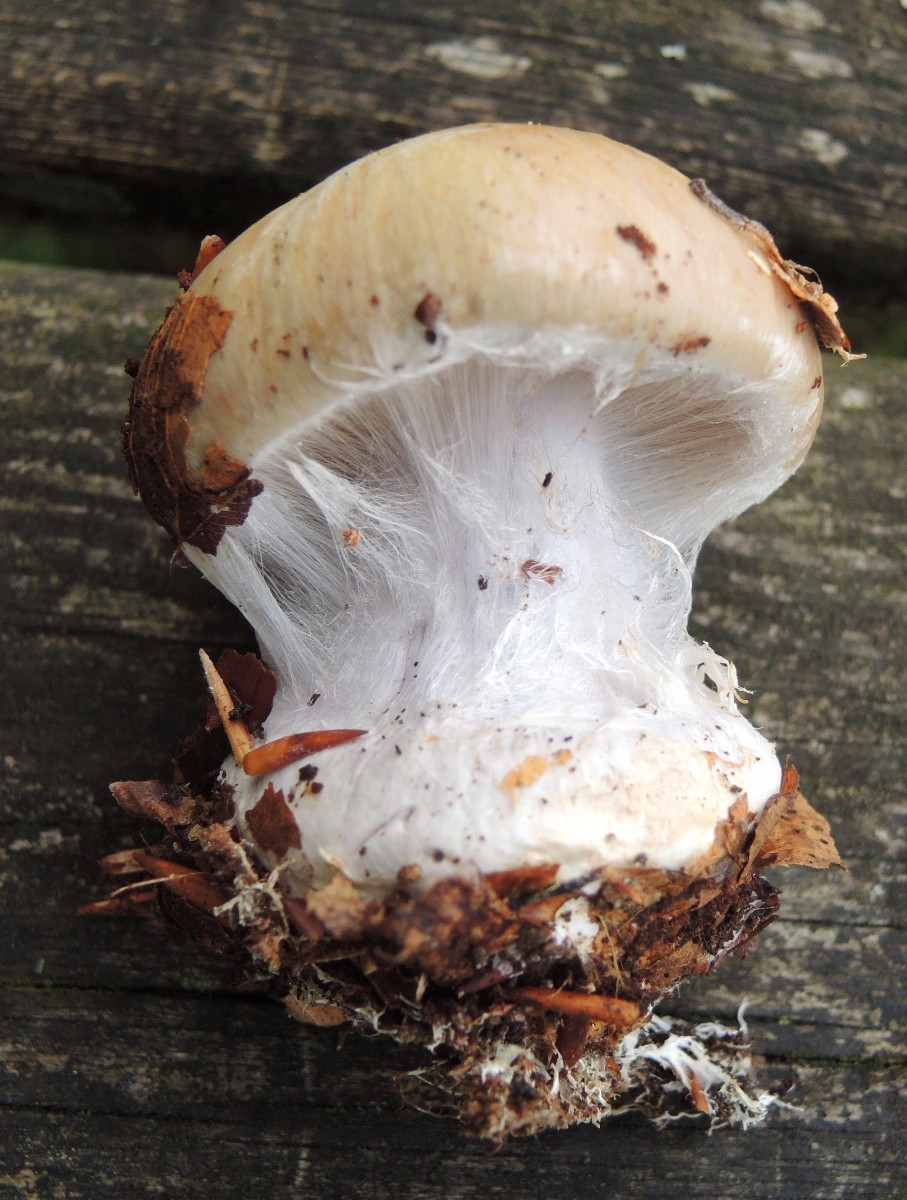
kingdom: Fungi
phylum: Basidiomycota
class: Agaricomycetes
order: Agaricales
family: Cortinariaceae
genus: Cortinarius
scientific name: Cortinarius anserinus
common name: bøge-slørhat
